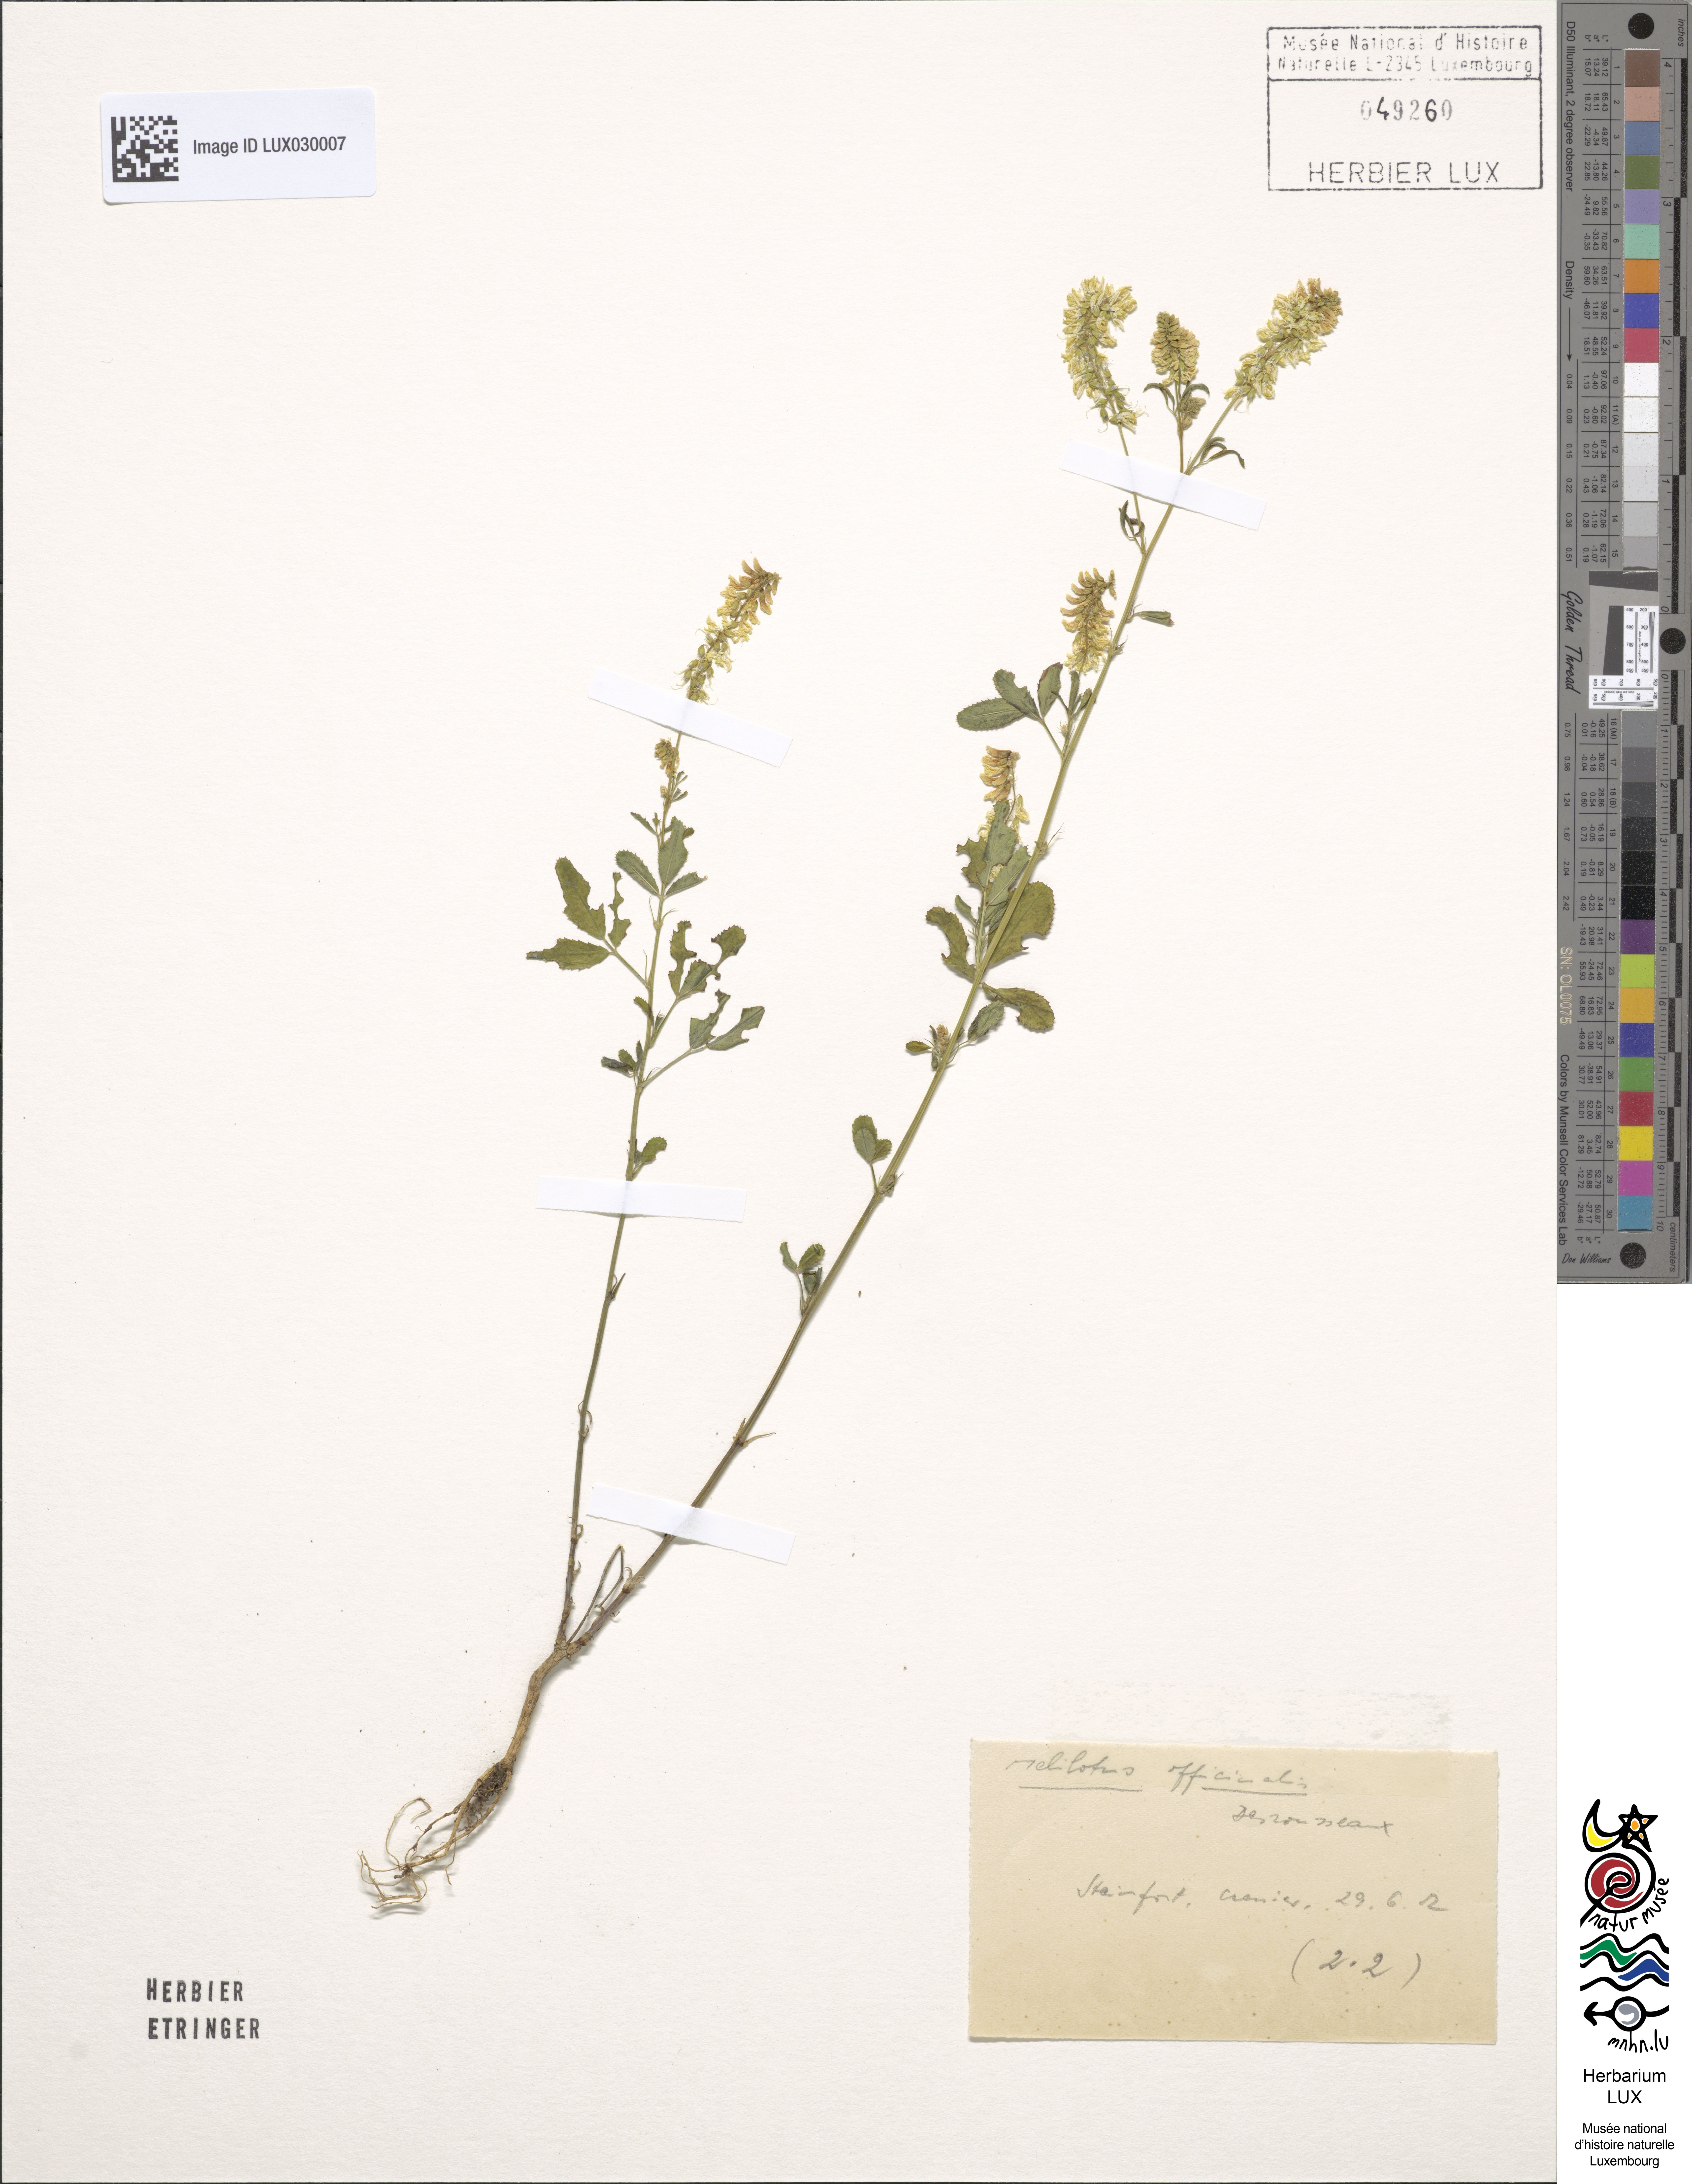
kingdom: Plantae
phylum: Tracheophyta
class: Magnoliopsida
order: Fabales
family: Fabaceae
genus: Melilotus
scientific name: Melilotus officinalis
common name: Sweetclover
